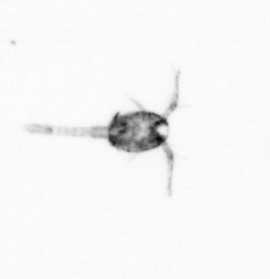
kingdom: Animalia
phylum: Arthropoda
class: Copepoda
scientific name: Copepoda
